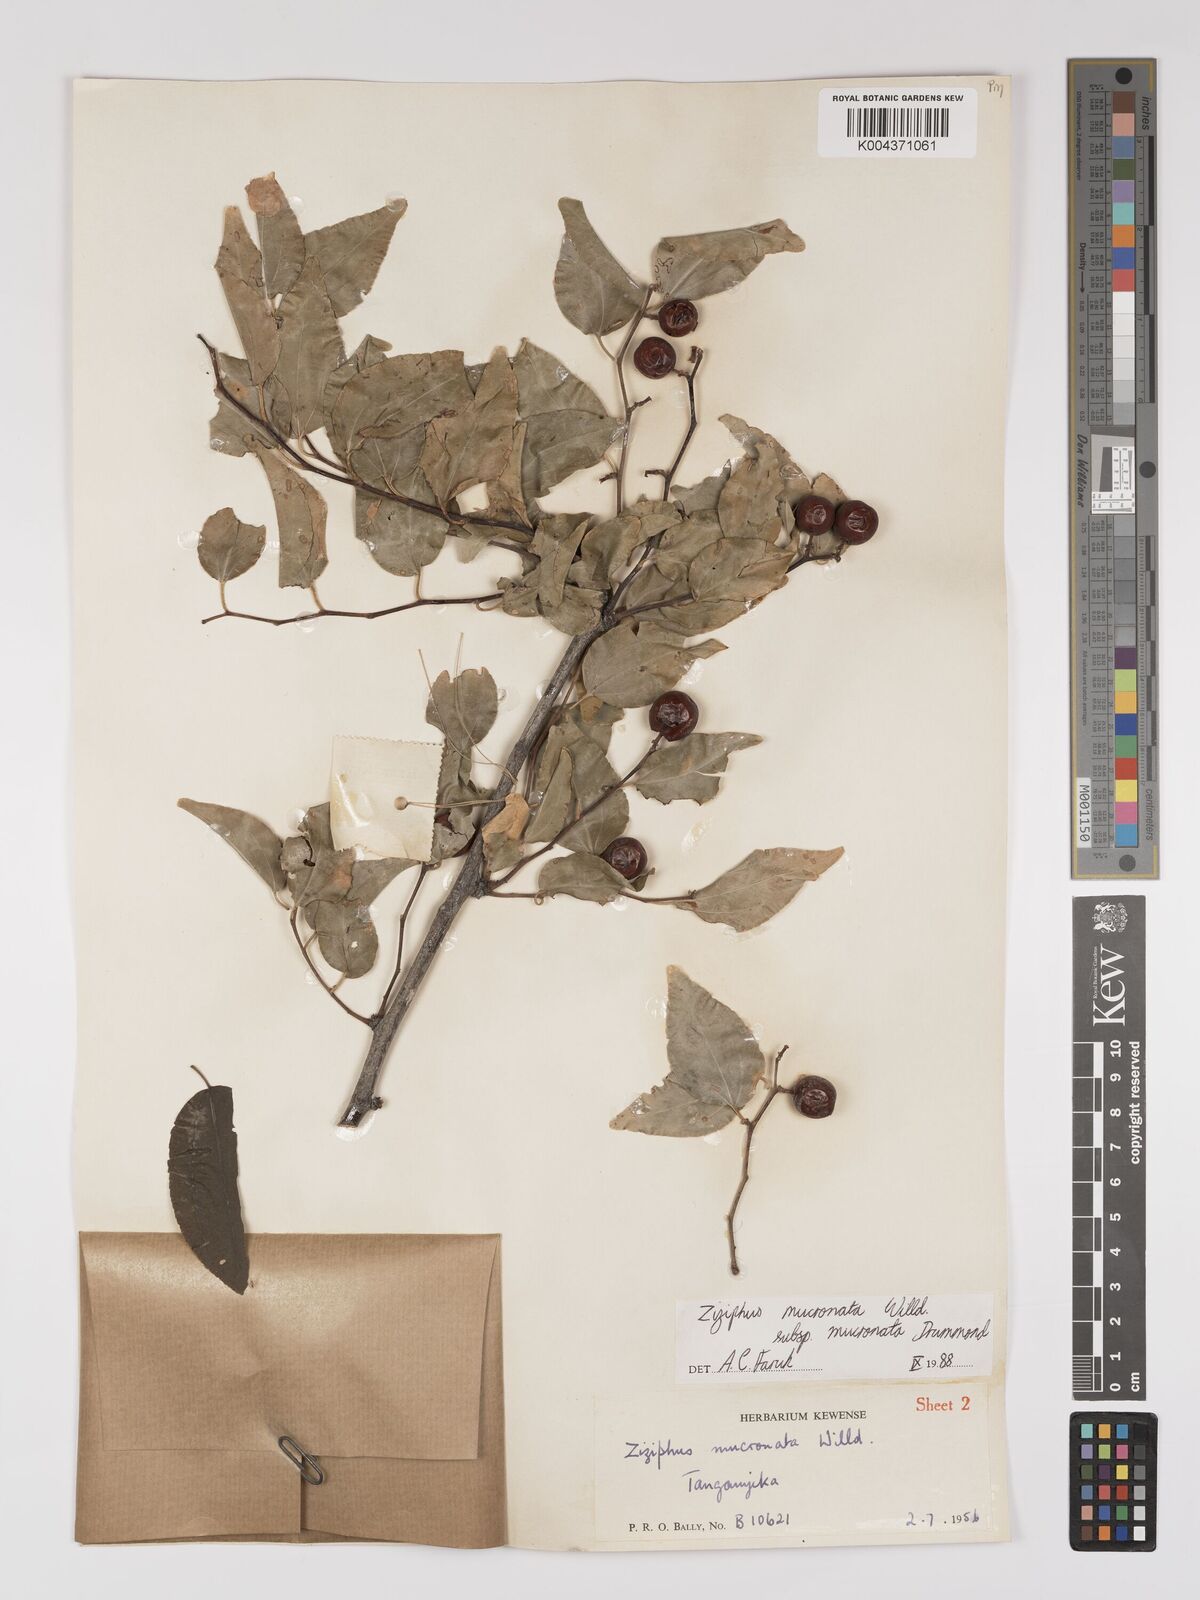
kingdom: Plantae
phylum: Tracheophyta
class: Magnoliopsida
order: Rosales
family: Rhamnaceae
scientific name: Rhamnaceae
